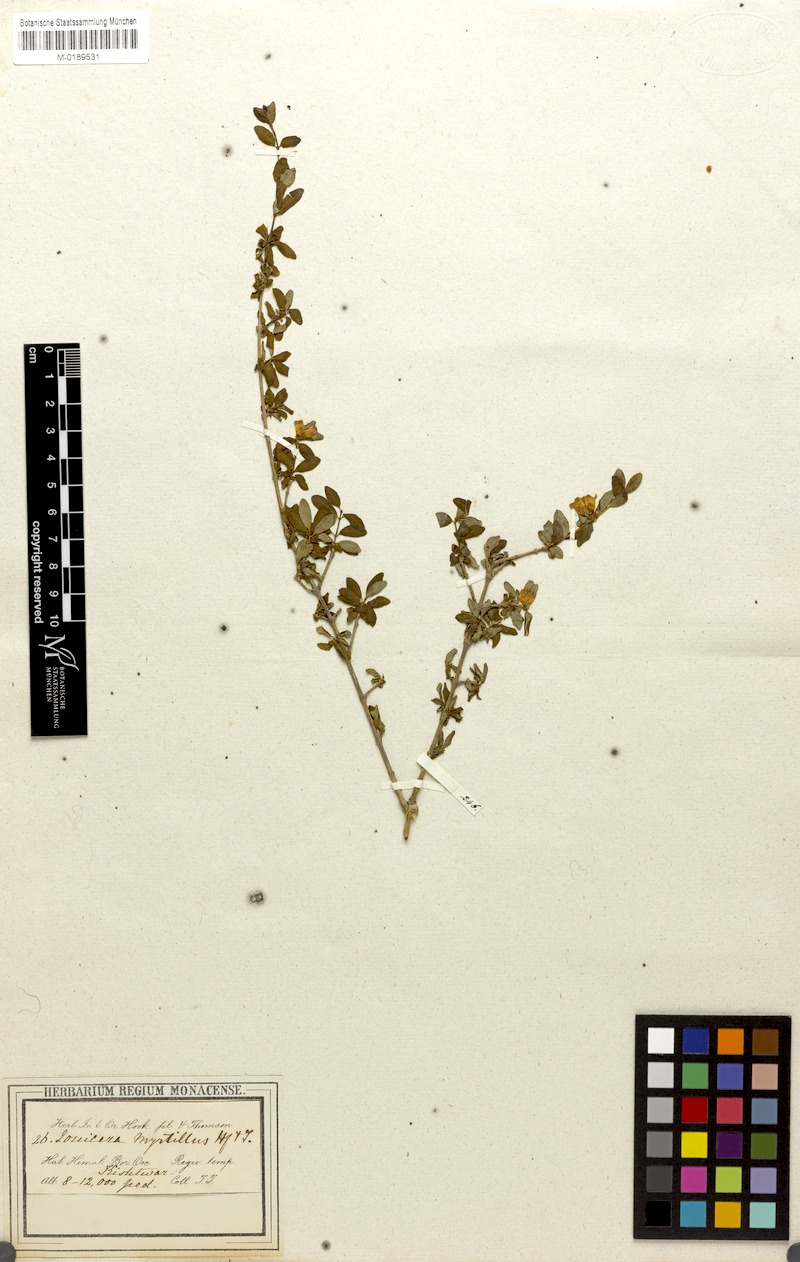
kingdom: Plantae
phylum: Tracheophyta
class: Magnoliopsida
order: Dipsacales
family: Caprifoliaceae
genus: Lonicera
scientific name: Lonicera angustifolia
